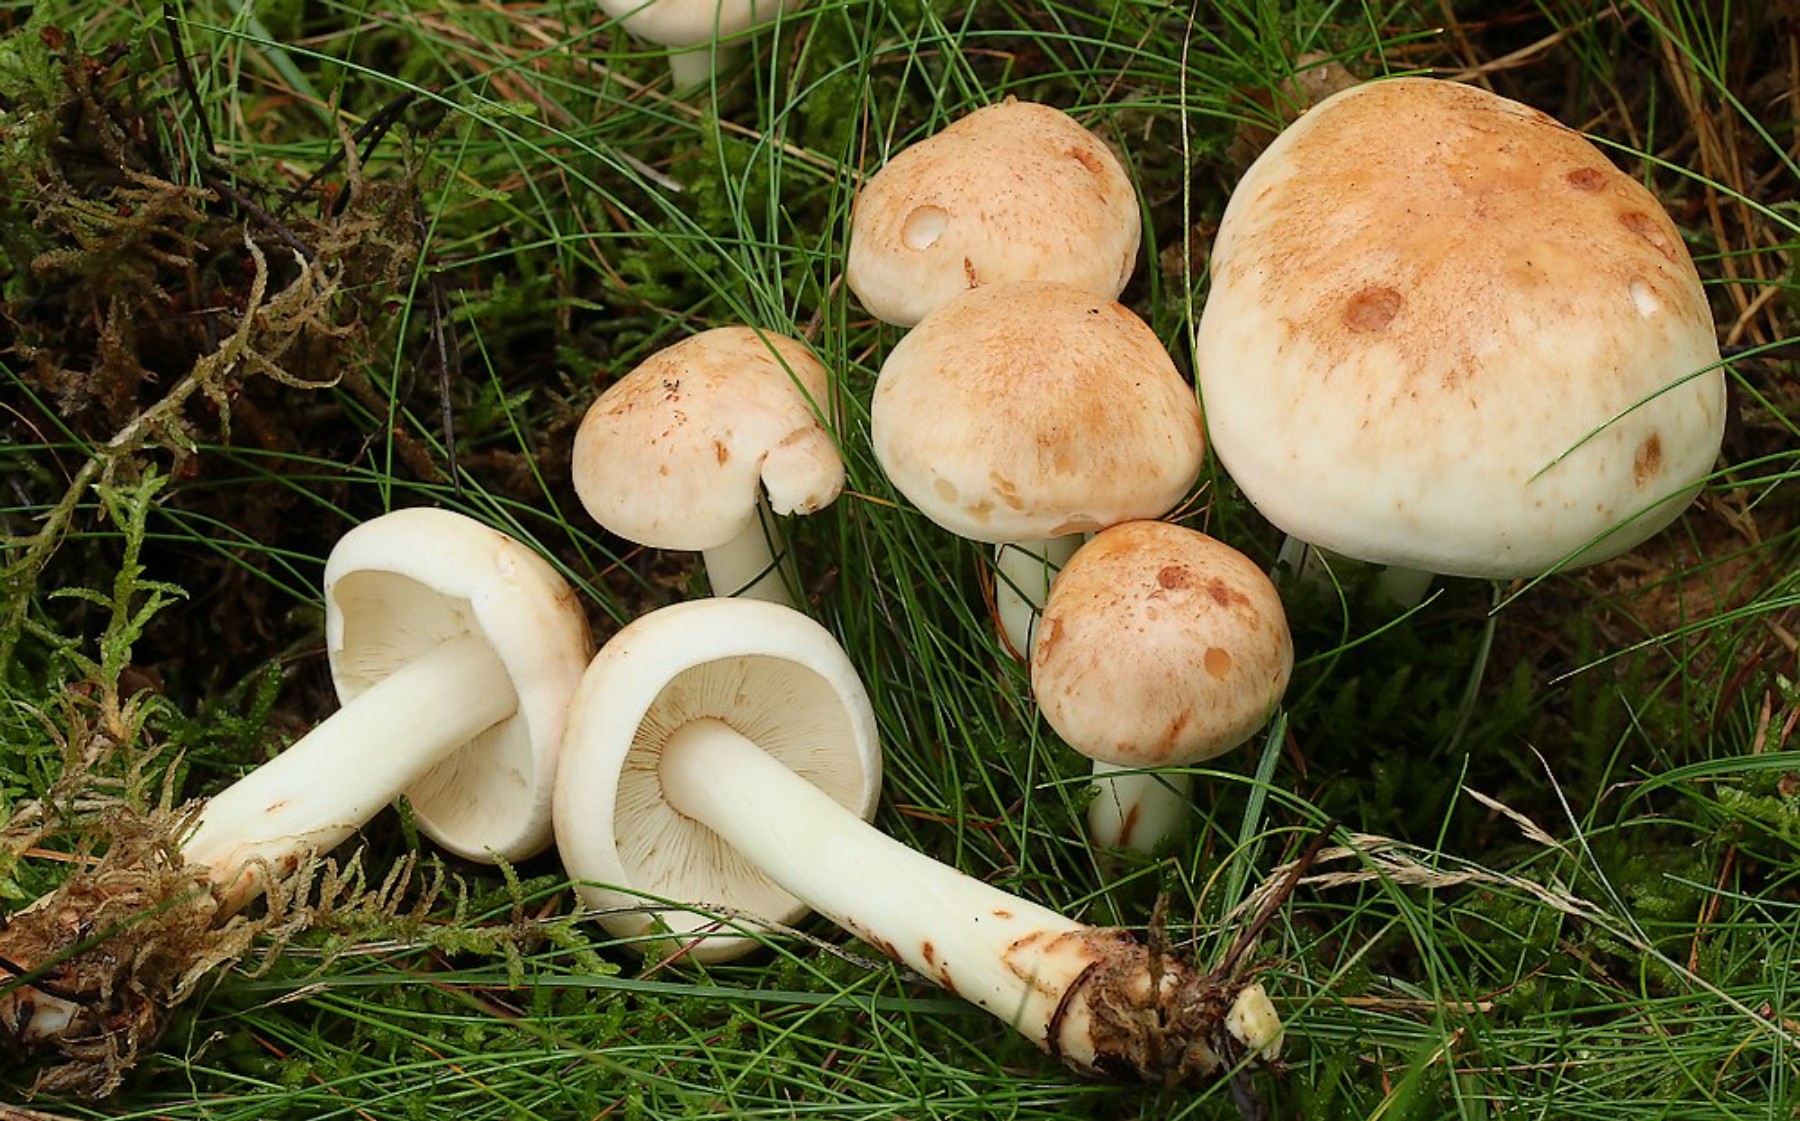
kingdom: Fungi
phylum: Basidiomycota
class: Agaricomycetes
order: Agaricales
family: Omphalotaceae
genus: Rhodocollybia
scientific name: Rhodocollybia maculata
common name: plettet fladhat
